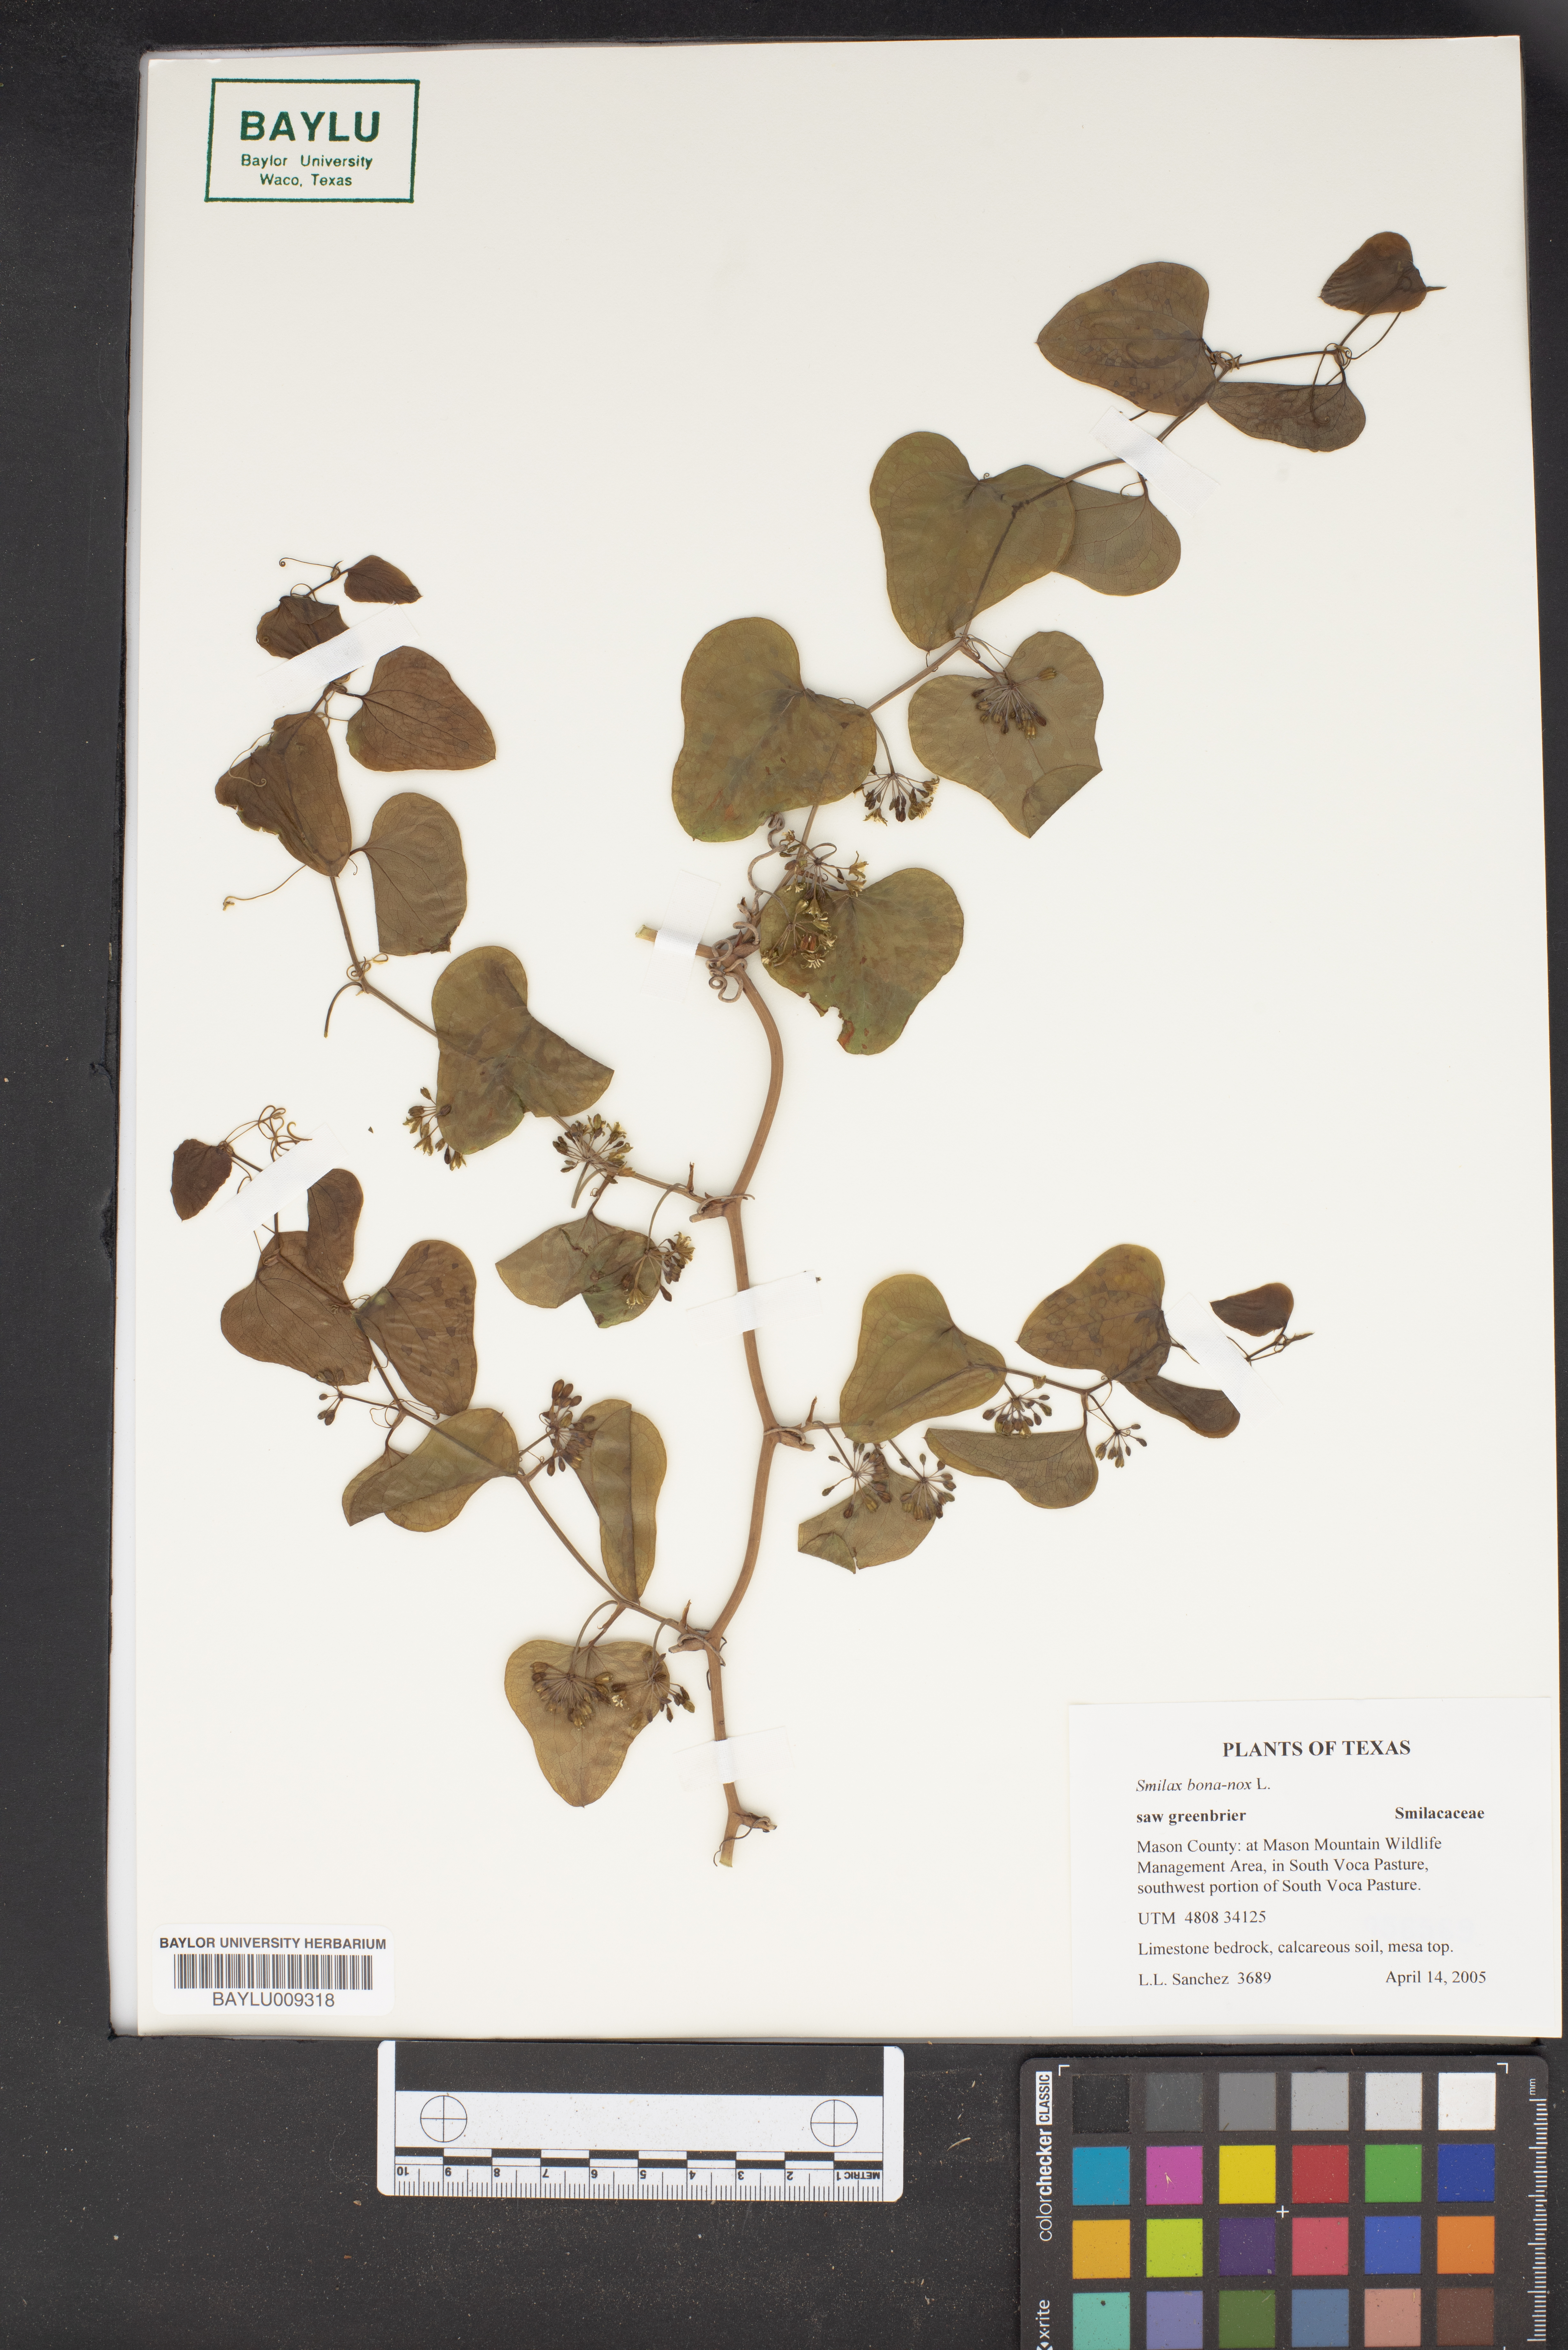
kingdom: Plantae
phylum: Tracheophyta
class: Liliopsida
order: Liliales
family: Smilacaceae
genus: Smilax
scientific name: Smilax bona-nox
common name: Catbrier
